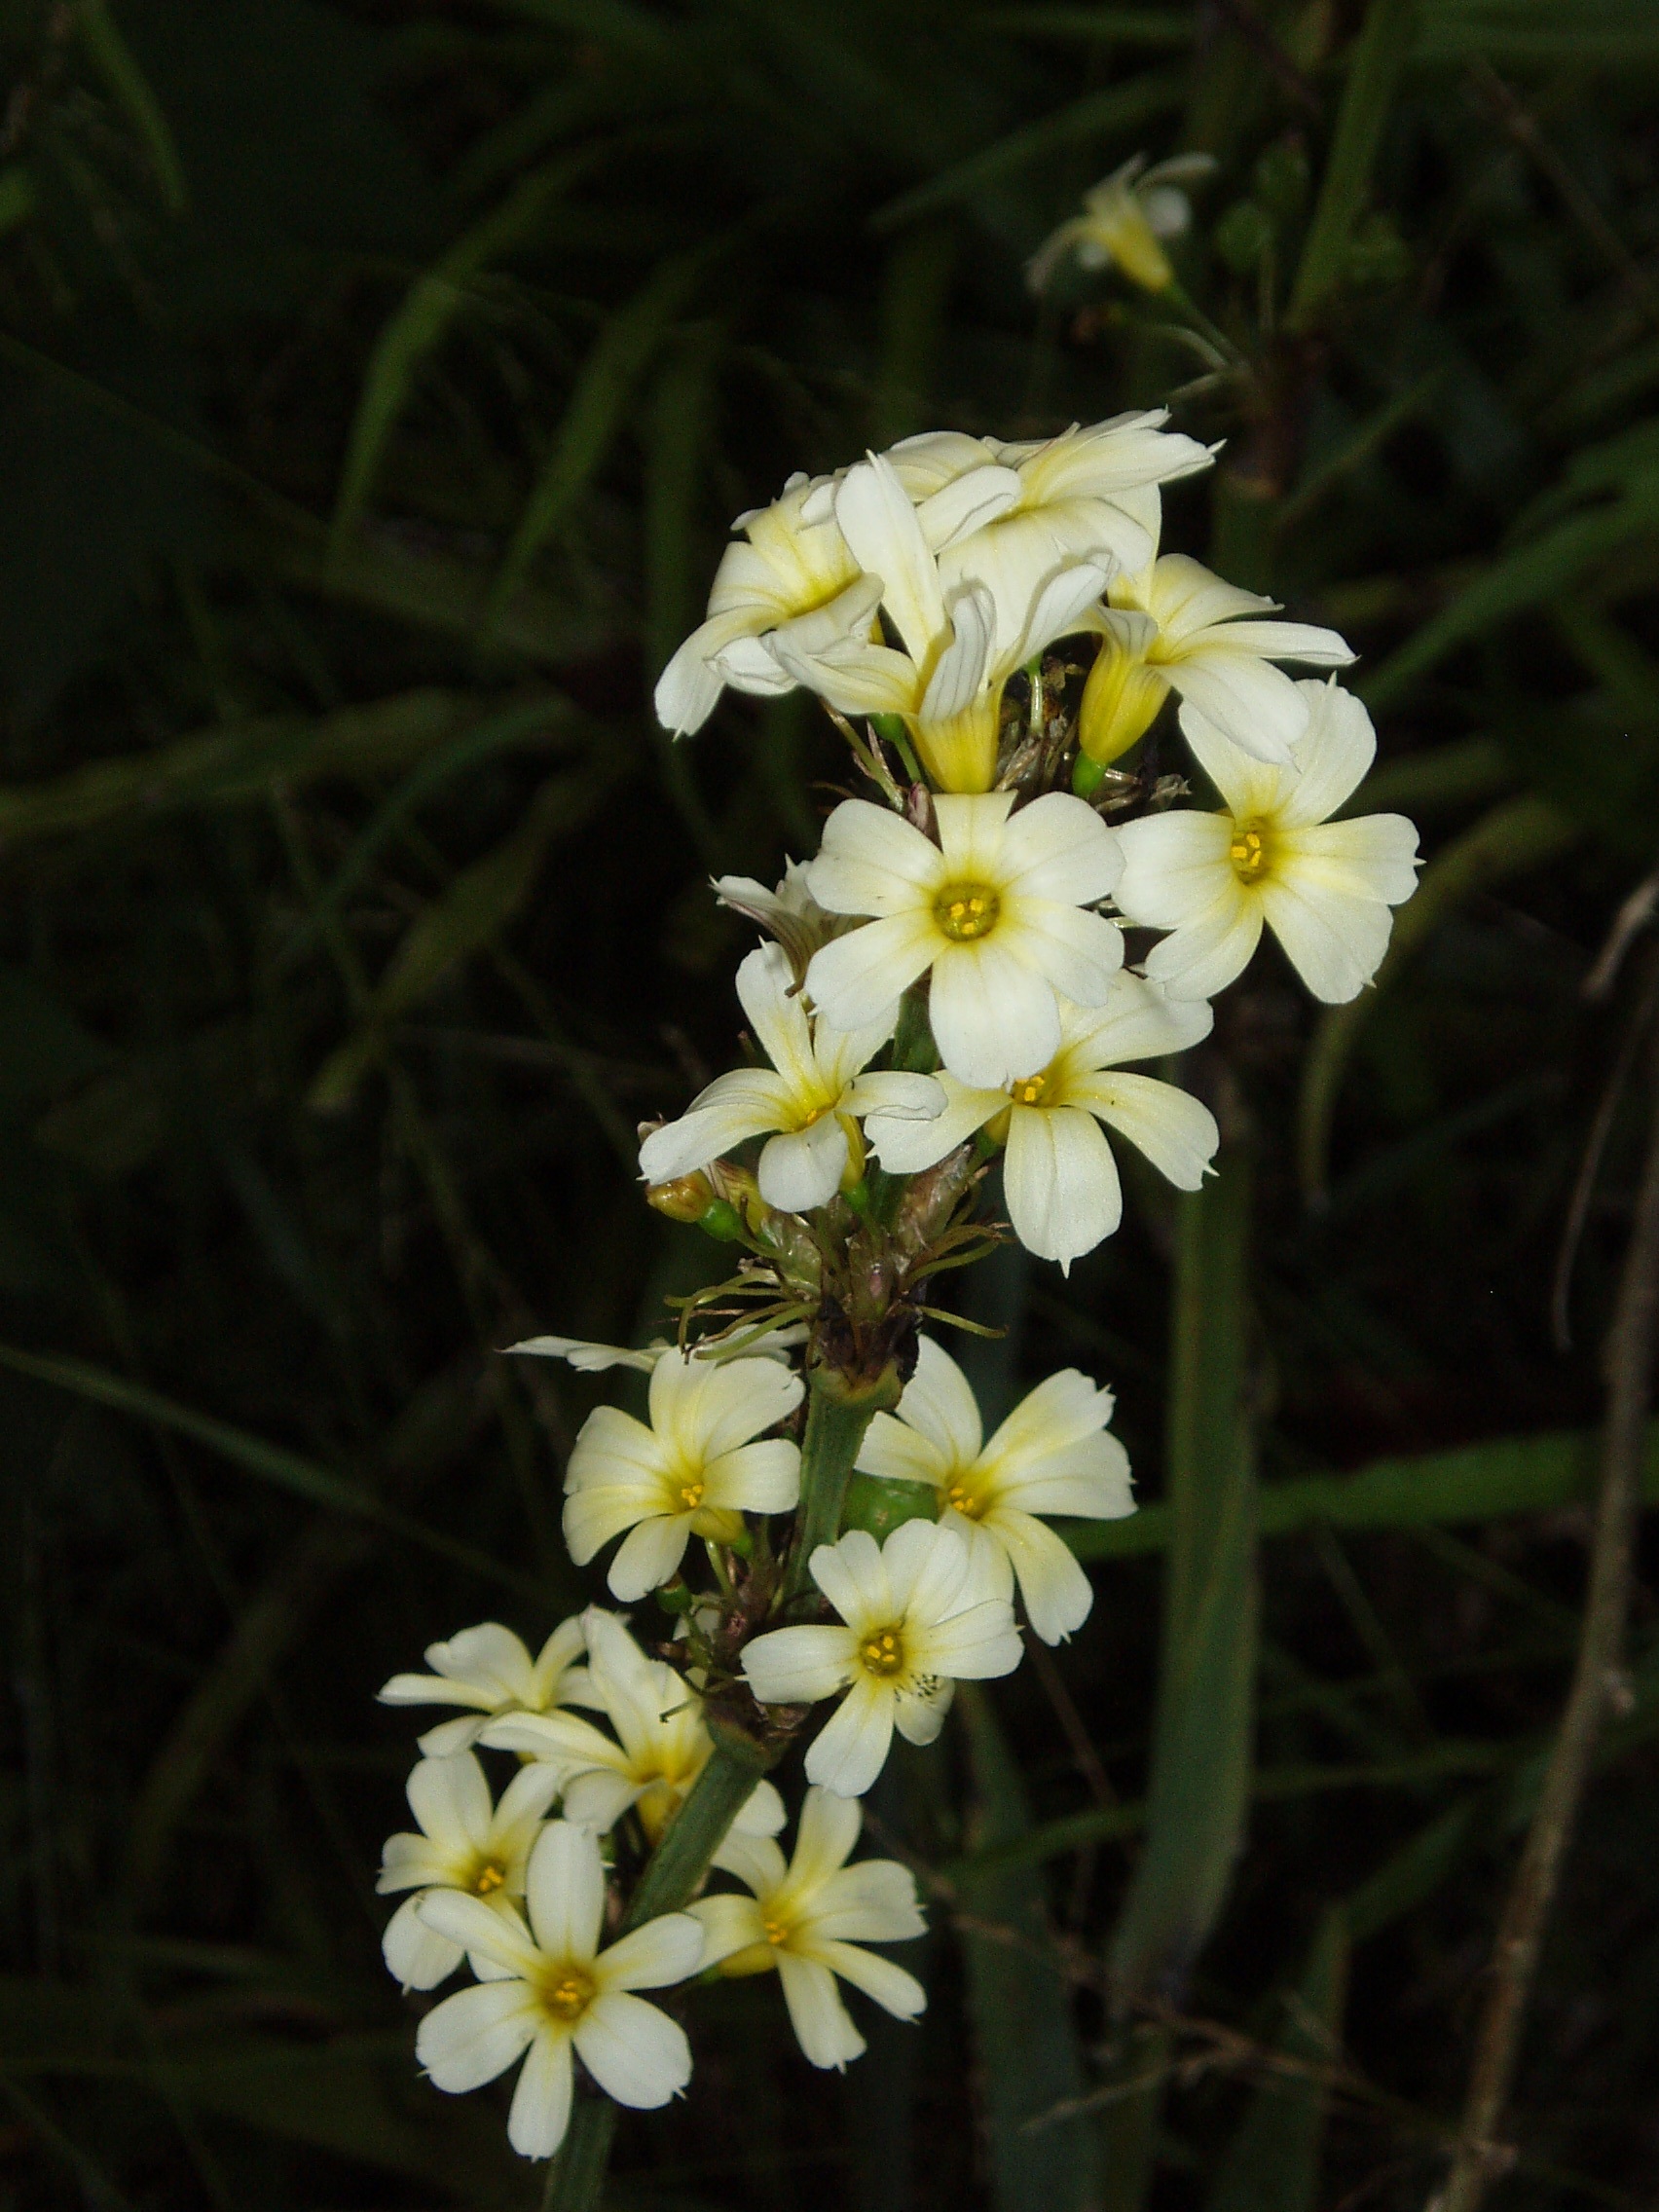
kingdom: Plantae
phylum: Tracheophyta
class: Liliopsida
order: Asparagales
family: Iridaceae
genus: Sisyrinchium
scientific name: Sisyrinchium striatum
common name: Pale yellow-eyed-grass
